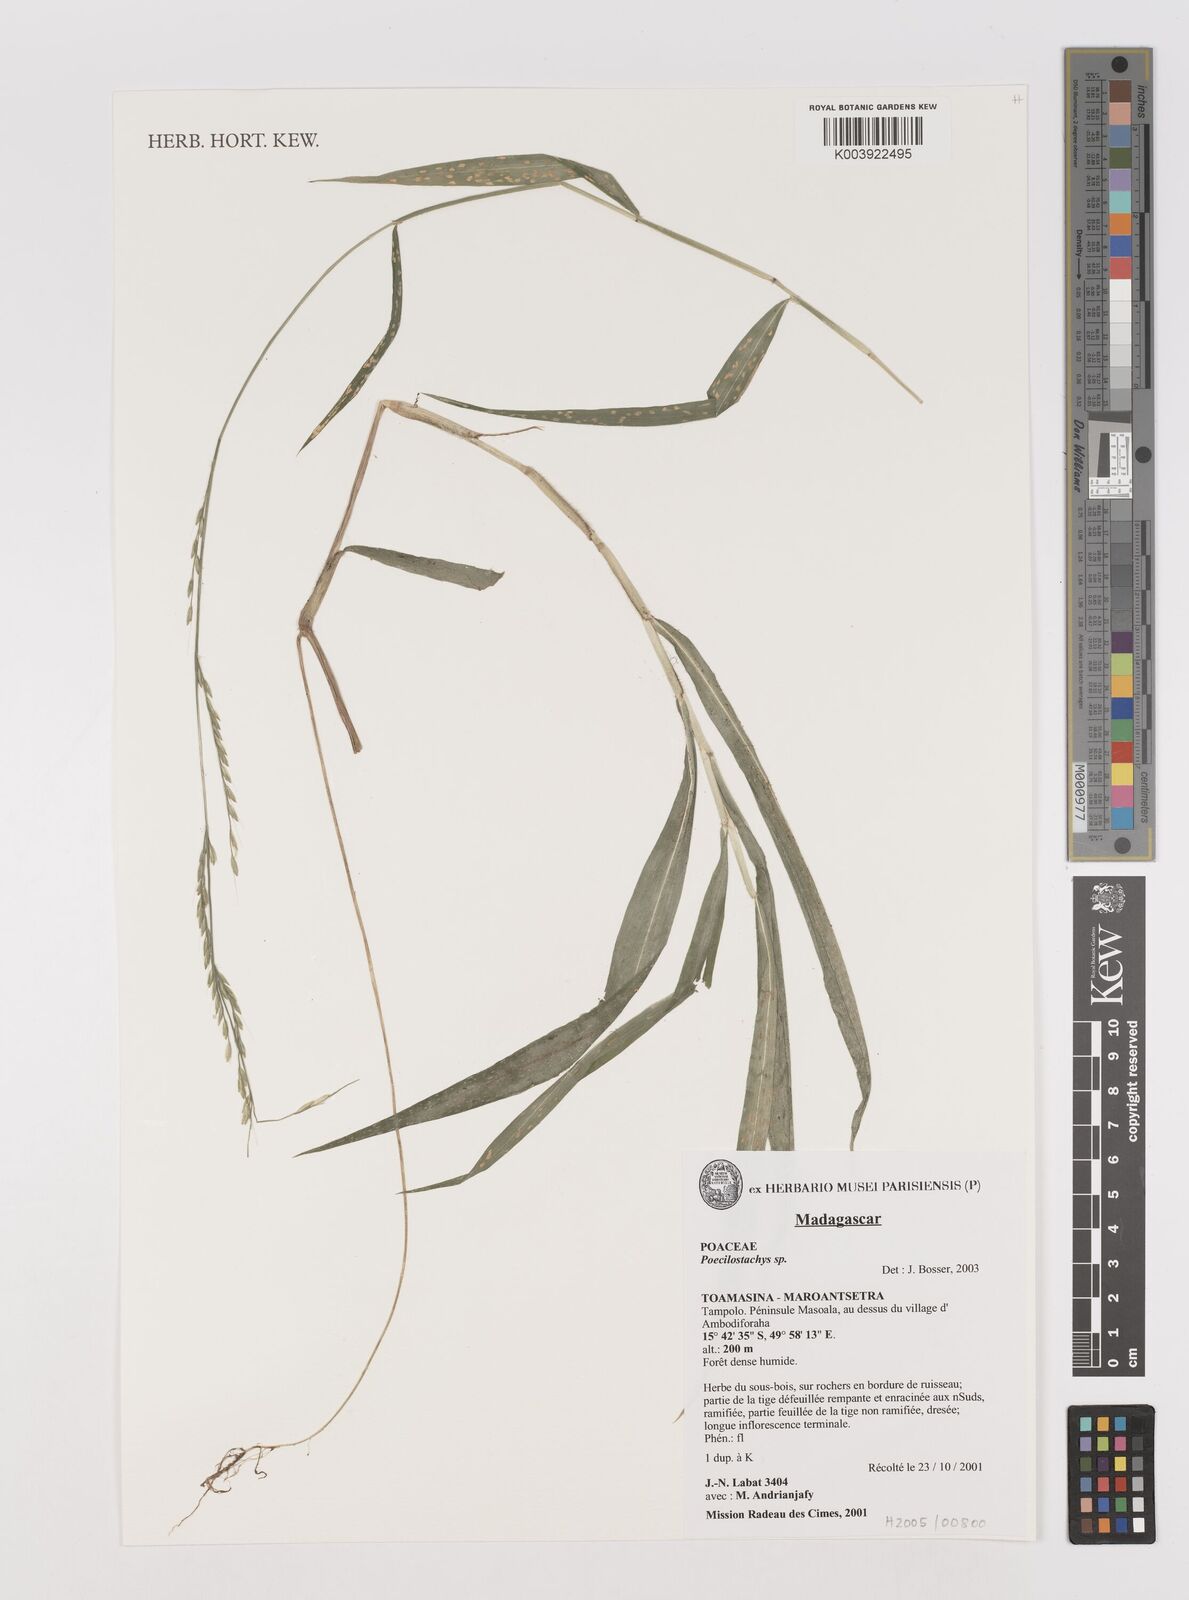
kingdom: Plantae
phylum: Tracheophyta
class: Liliopsida
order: Poales
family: Poaceae
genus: Poecilostachys
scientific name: Poecilostachys
